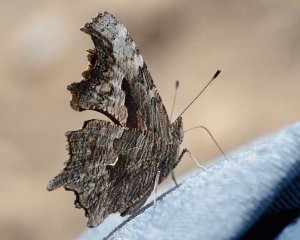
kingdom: Animalia
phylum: Arthropoda
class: Insecta
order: Lepidoptera
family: Nymphalidae
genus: Polygonia
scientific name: Polygonia progne
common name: Gray Comma
